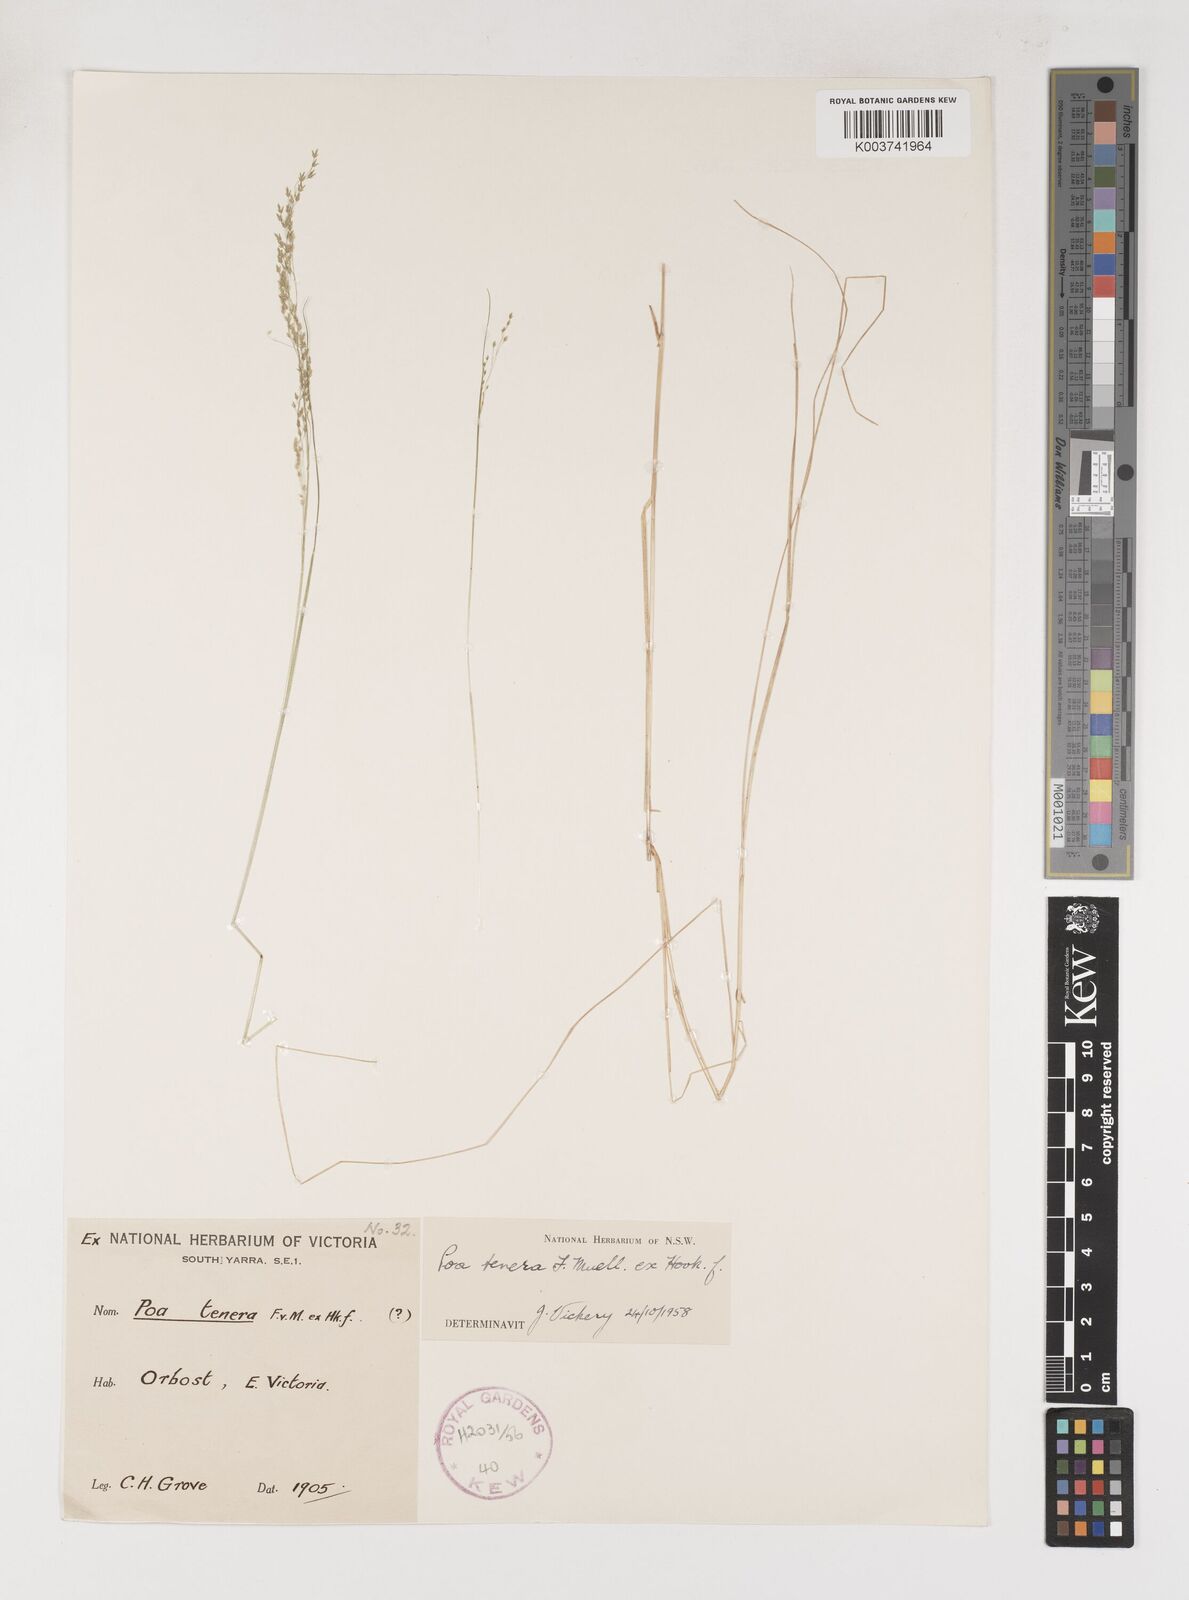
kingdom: Plantae
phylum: Tracheophyta
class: Liliopsida
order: Poales
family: Poaceae
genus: Poa
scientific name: Poa tenera
